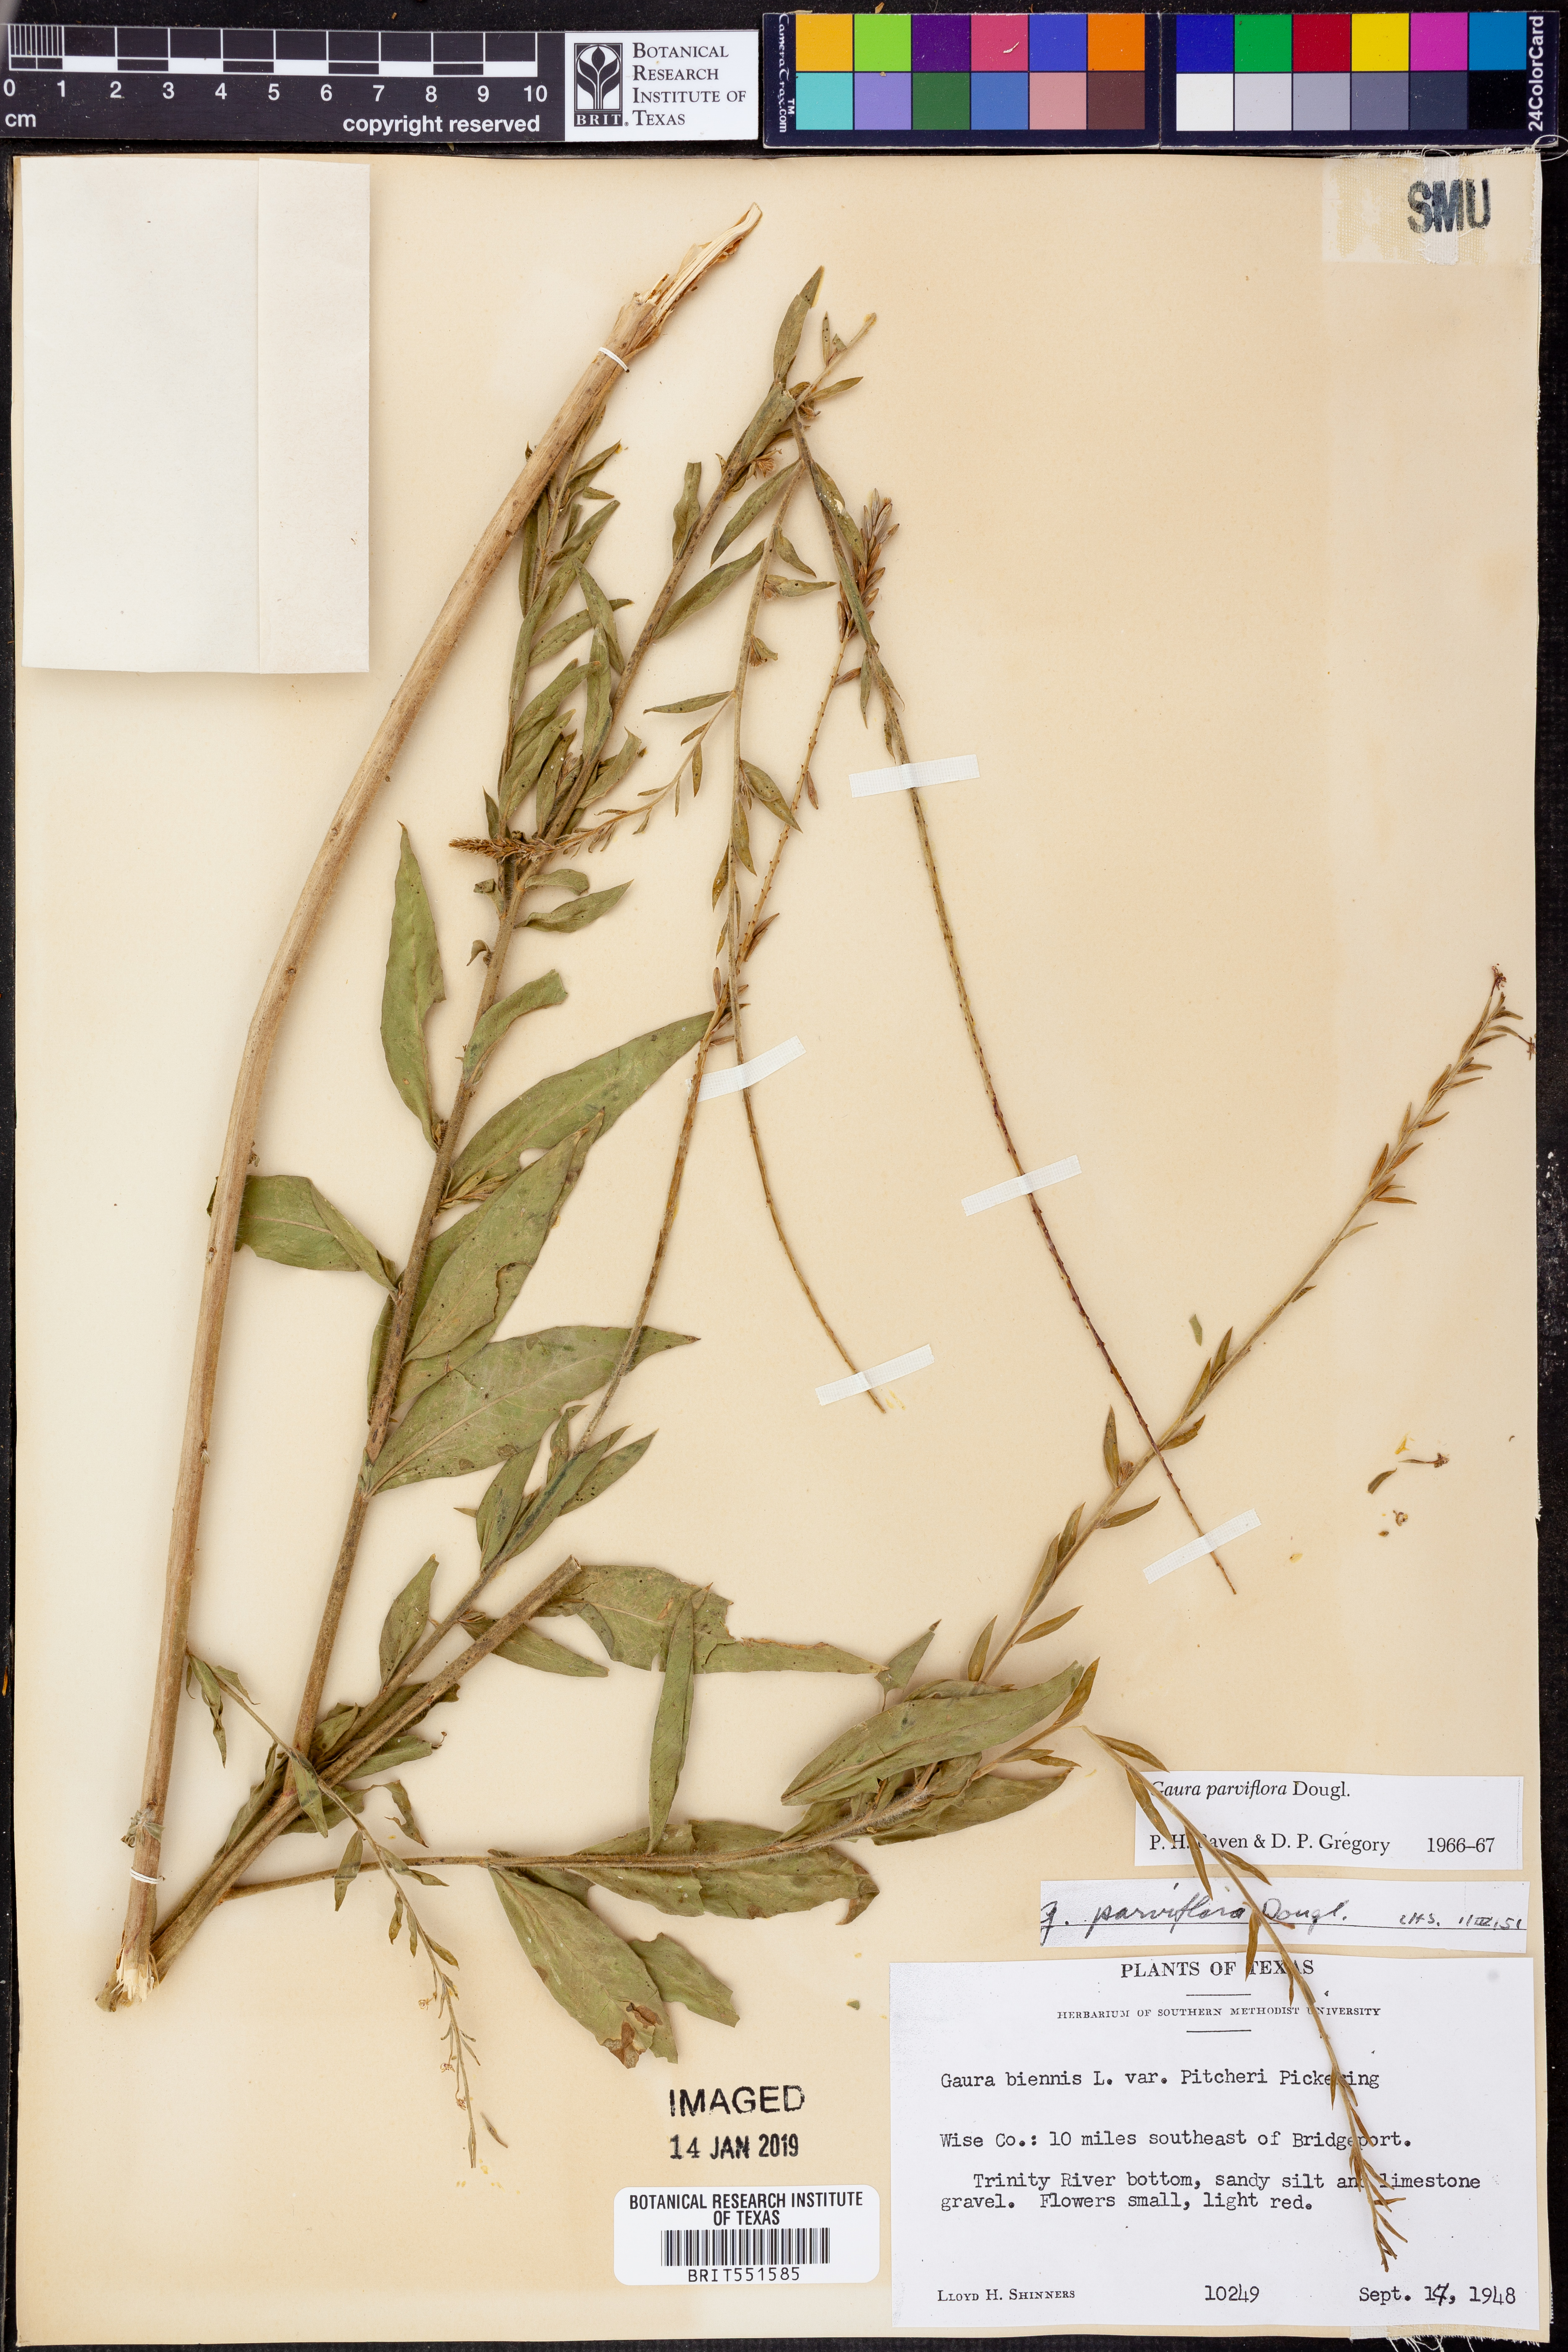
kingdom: Plantae
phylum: Tracheophyta
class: Magnoliopsida
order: Myrtales
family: Onagraceae
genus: Oenothera
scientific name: Oenothera curtiflora
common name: Velvetweed
